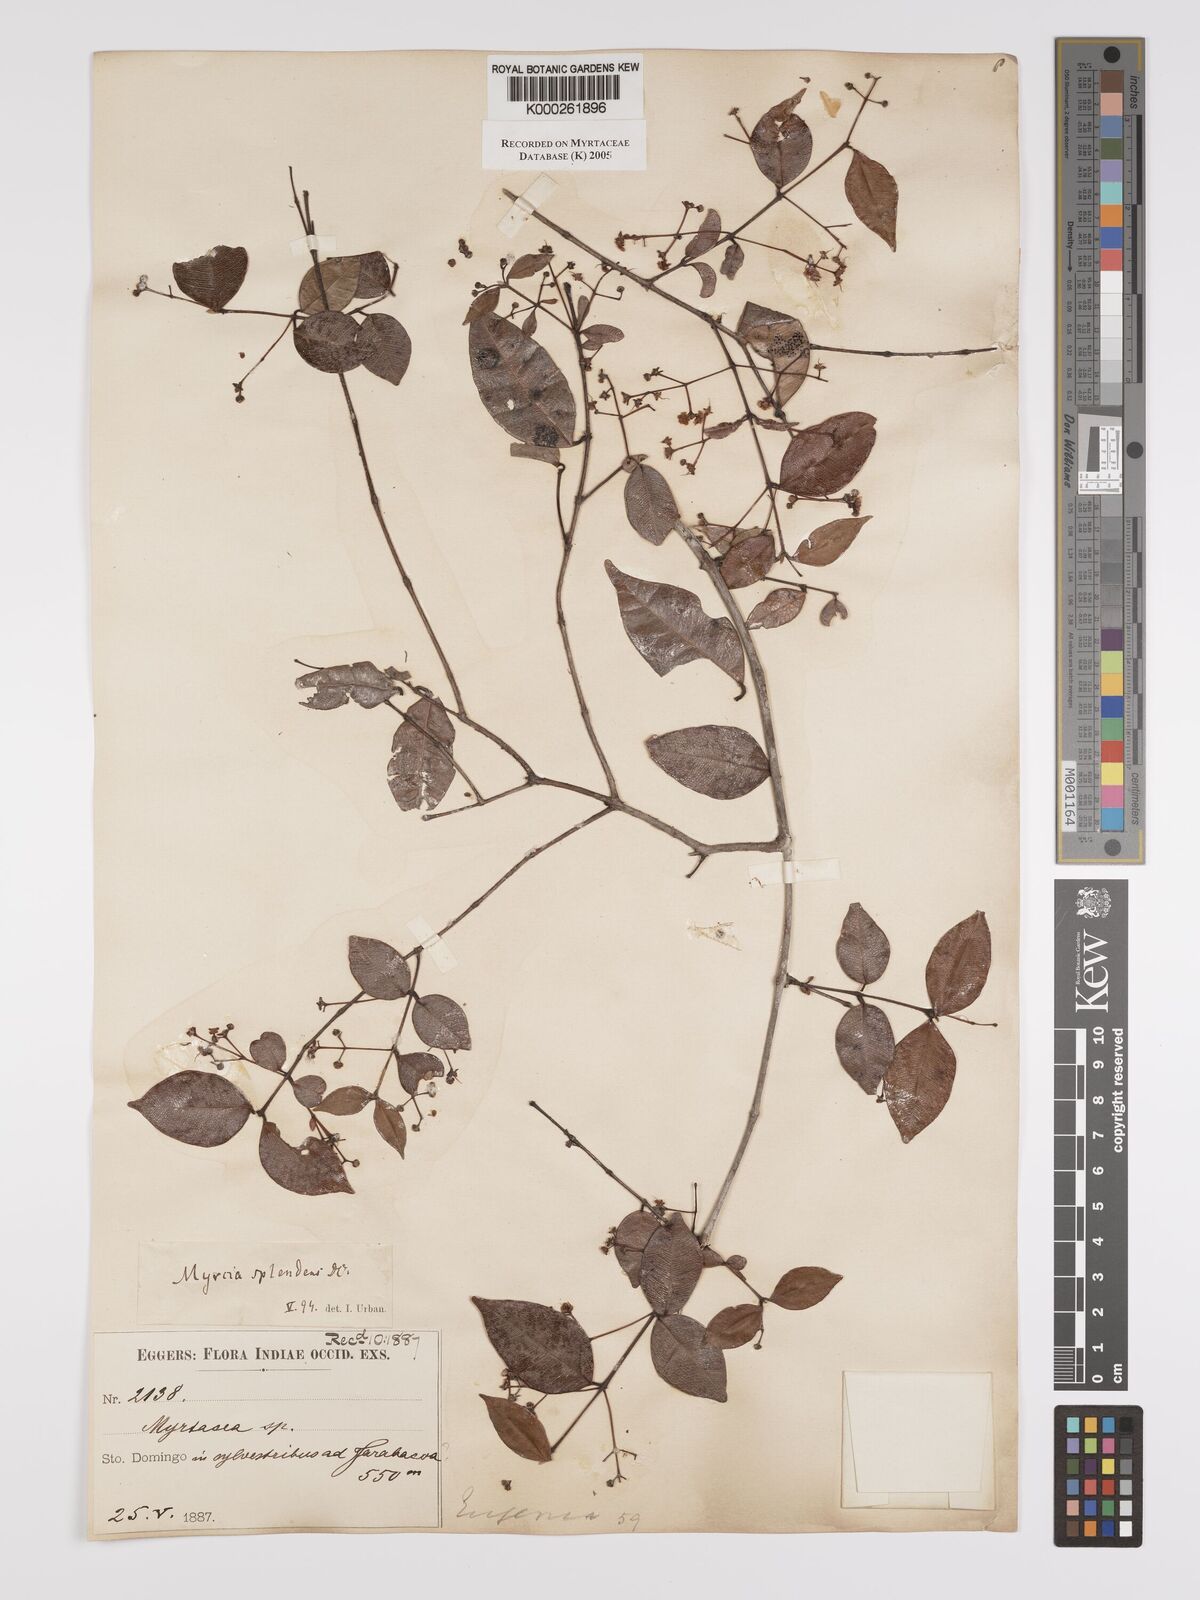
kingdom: Plantae
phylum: Tracheophyta
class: Magnoliopsida
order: Myrtales
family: Myrtaceae
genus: Myrcia
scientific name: Myrcia splendens
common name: Surinam cherry
